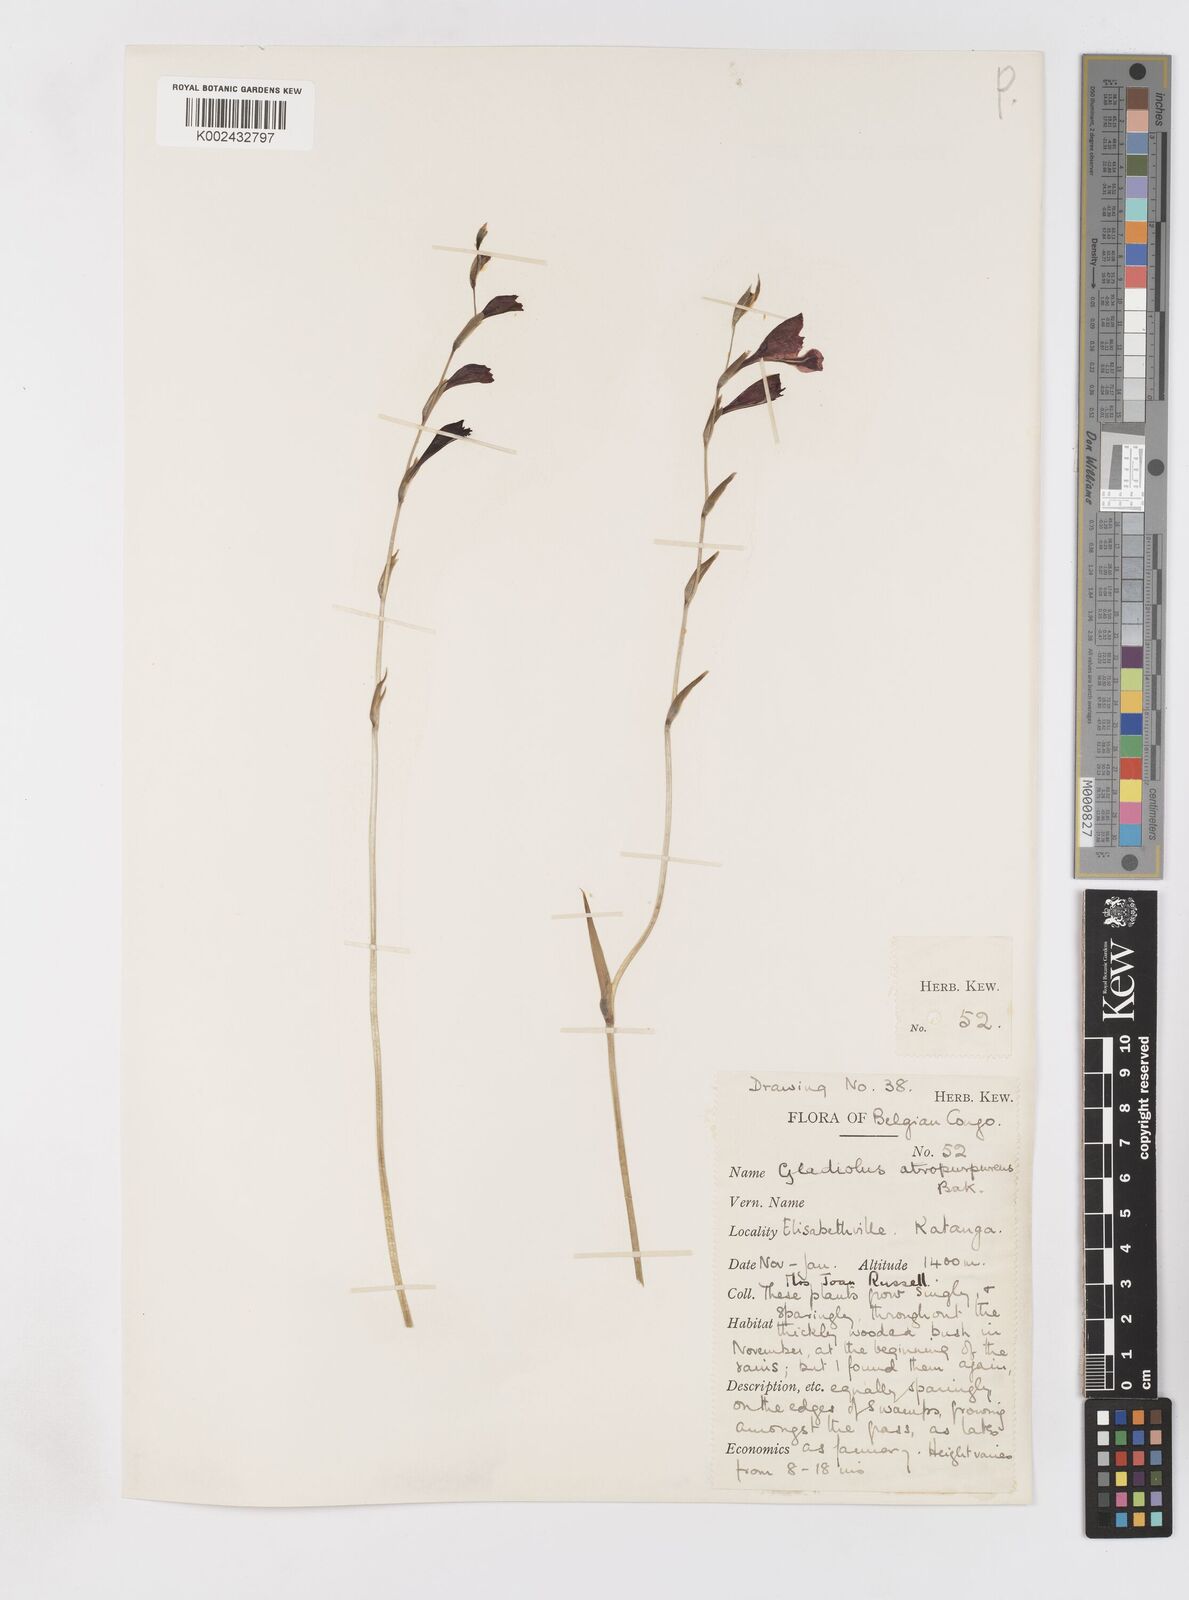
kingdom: Plantae
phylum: Tracheophyta
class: Liliopsida
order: Asparagales
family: Iridaceae
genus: Gladiolus
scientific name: Gladiolus atropurpureus
